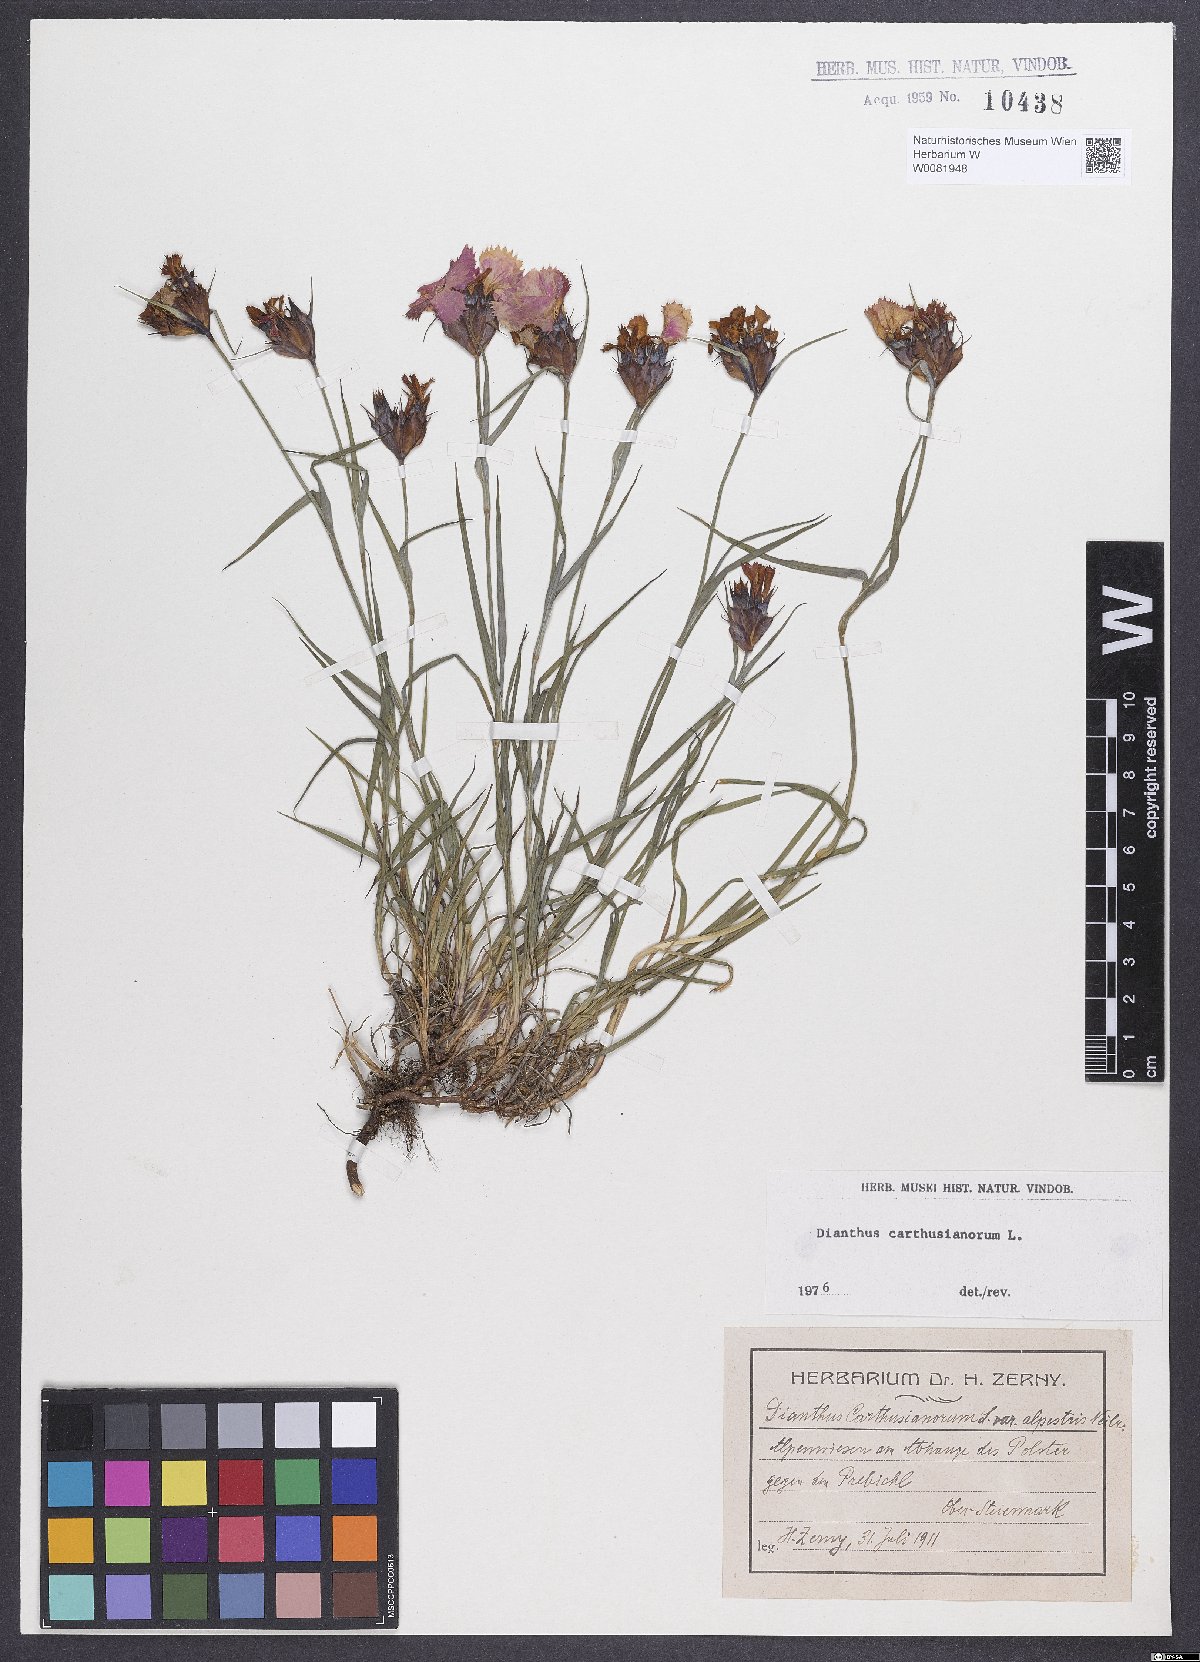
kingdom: Plantae
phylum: Tracheophyta
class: Magnoliopsida
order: Caryophyllales
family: Caryophyllaceae
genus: Dianthus
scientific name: Dianthus carthusianorum
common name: Carthusian pink
